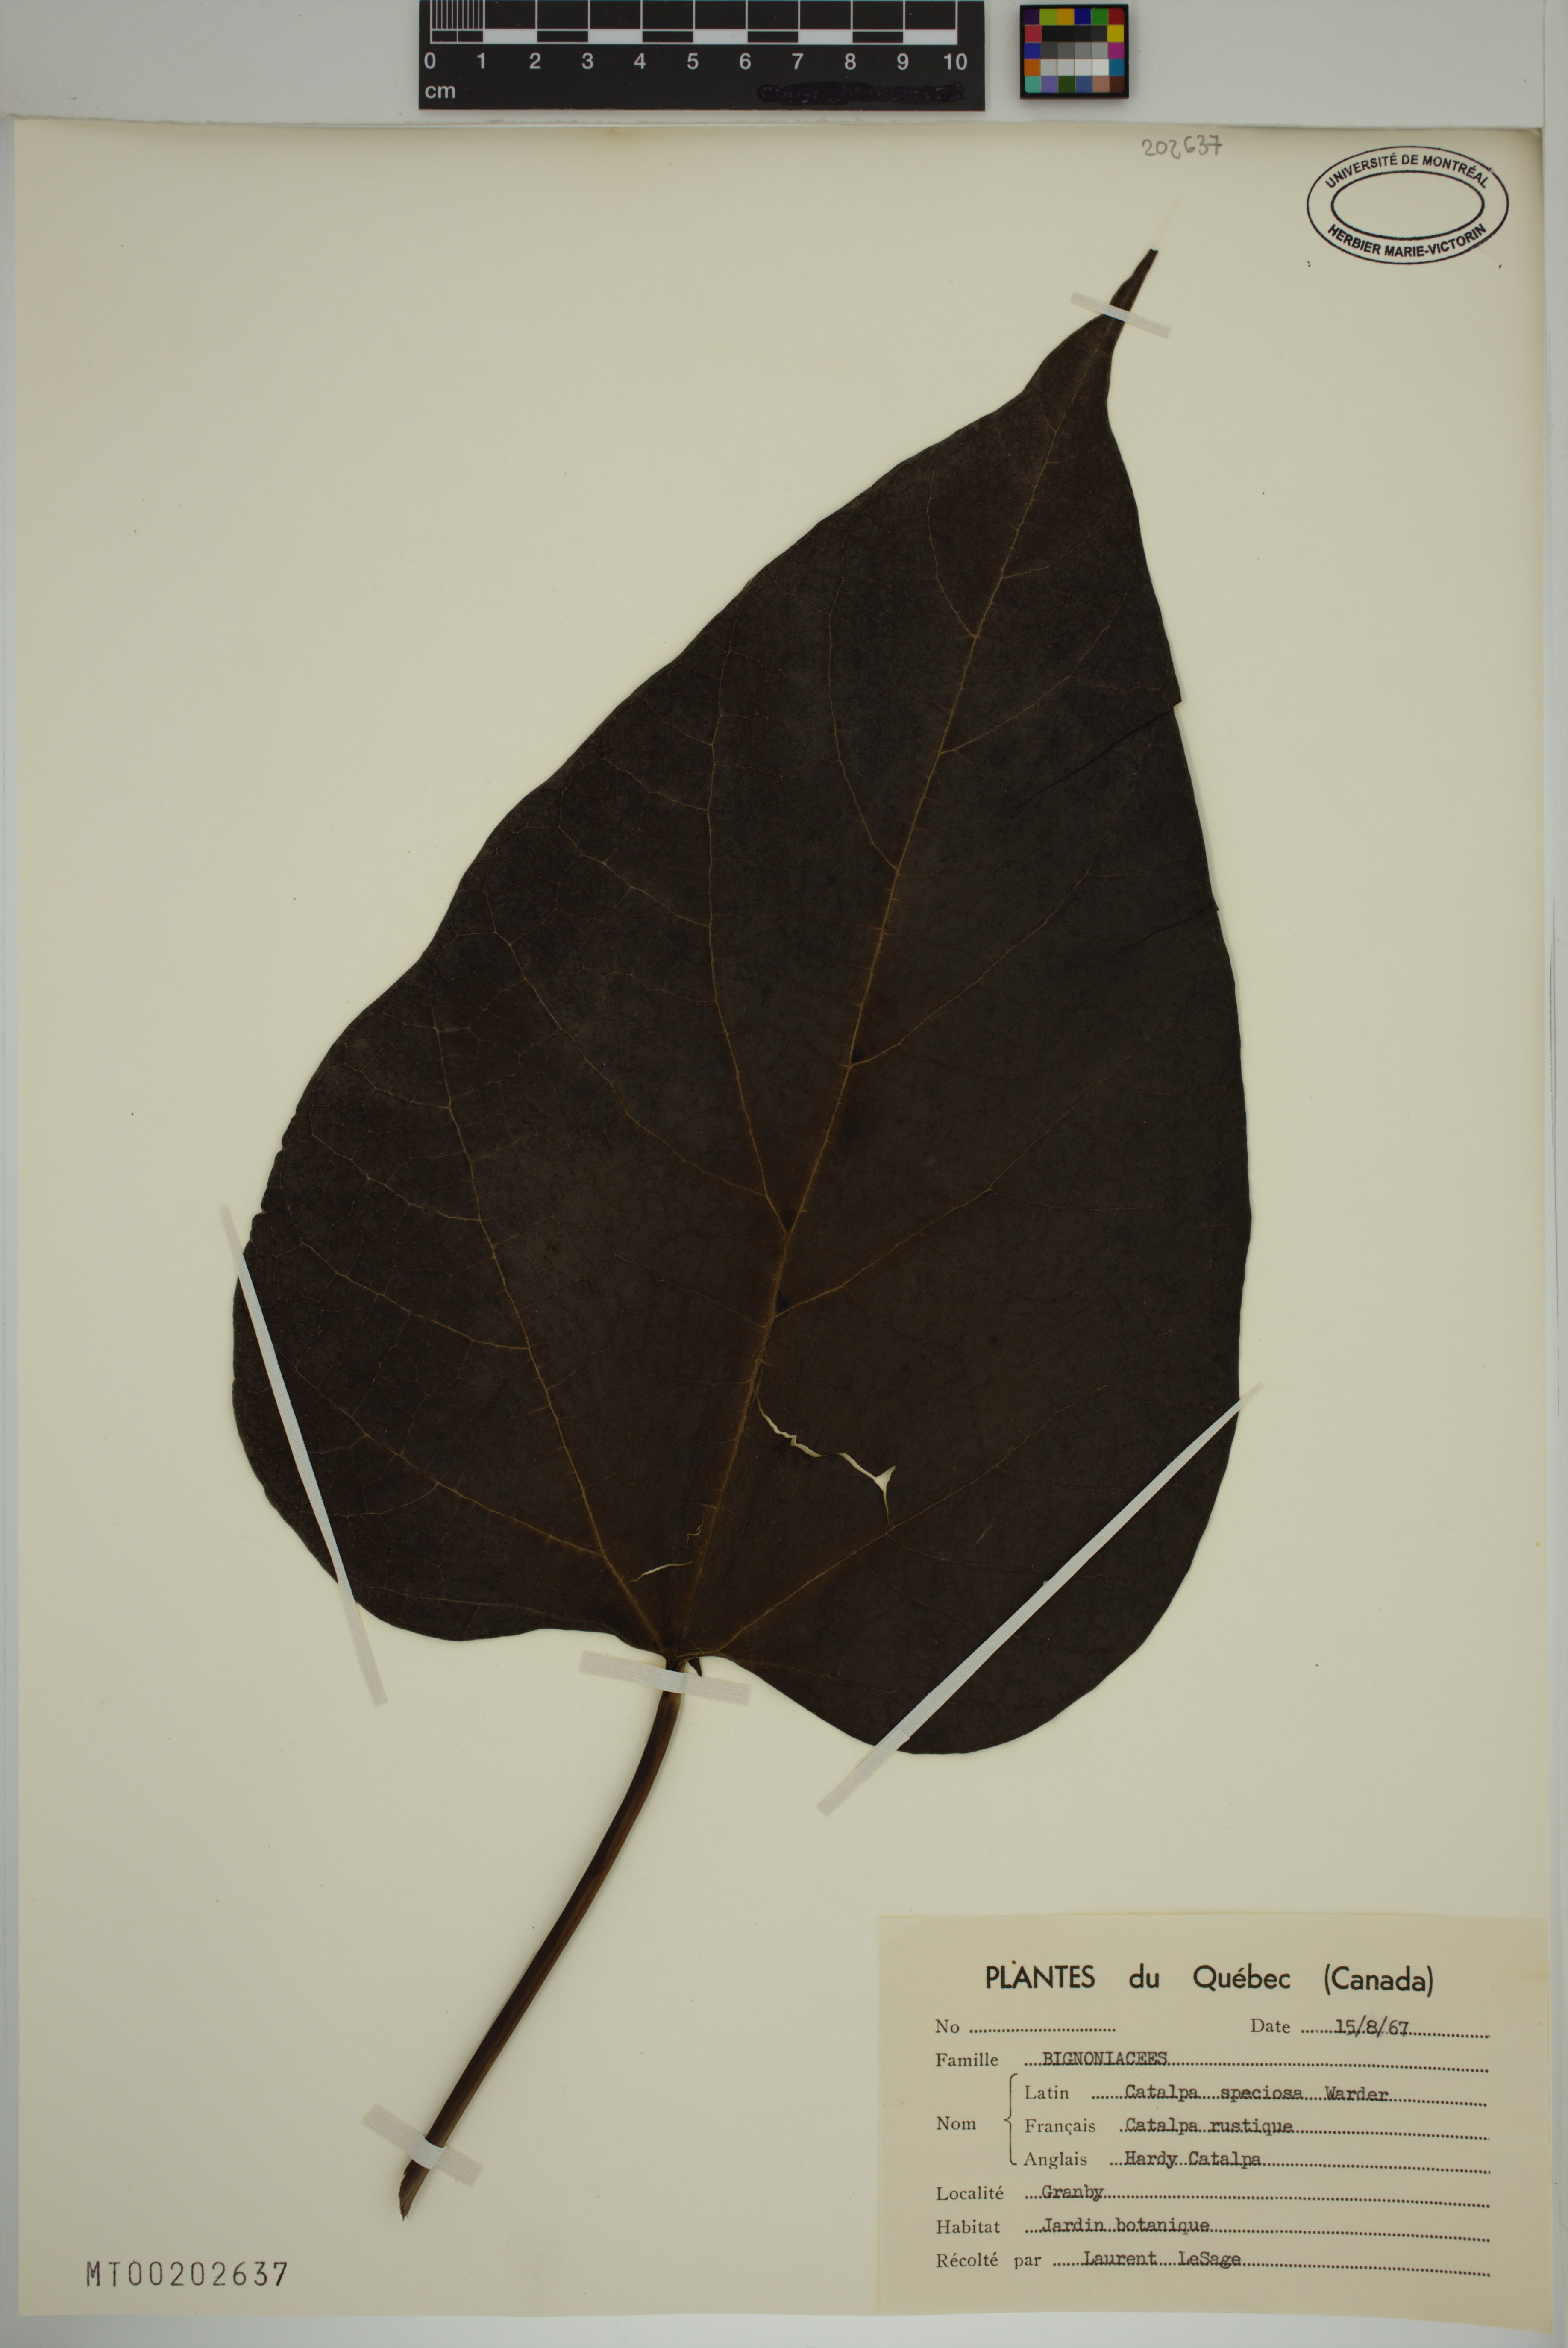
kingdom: Plantae
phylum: Tracheophyta
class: Magnoliopsida
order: Lamiales
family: Bignoniaceae
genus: Catalpa
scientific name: Catalpa speciosa
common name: Northern catalpa
